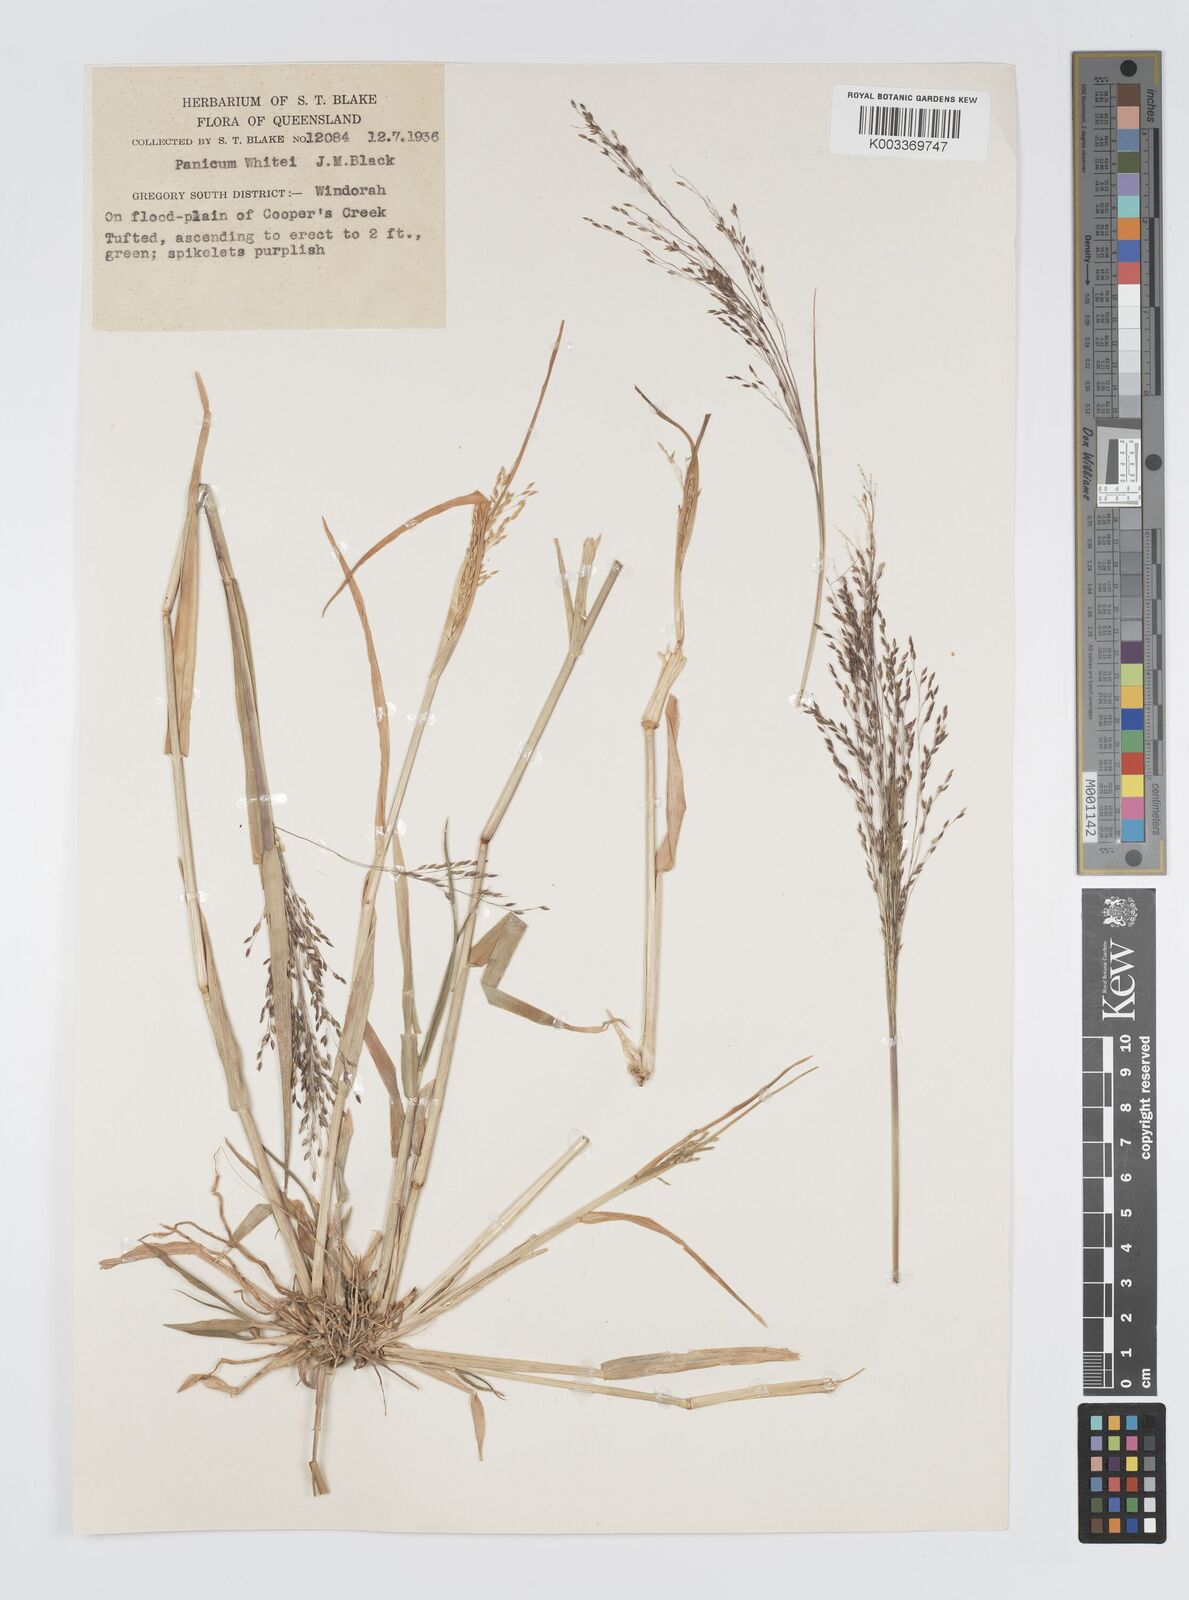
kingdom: Plantae
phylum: Tracheophyta
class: Liliopsida
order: Poales
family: Poaceae
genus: Panicum
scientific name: Panicum laevinode
